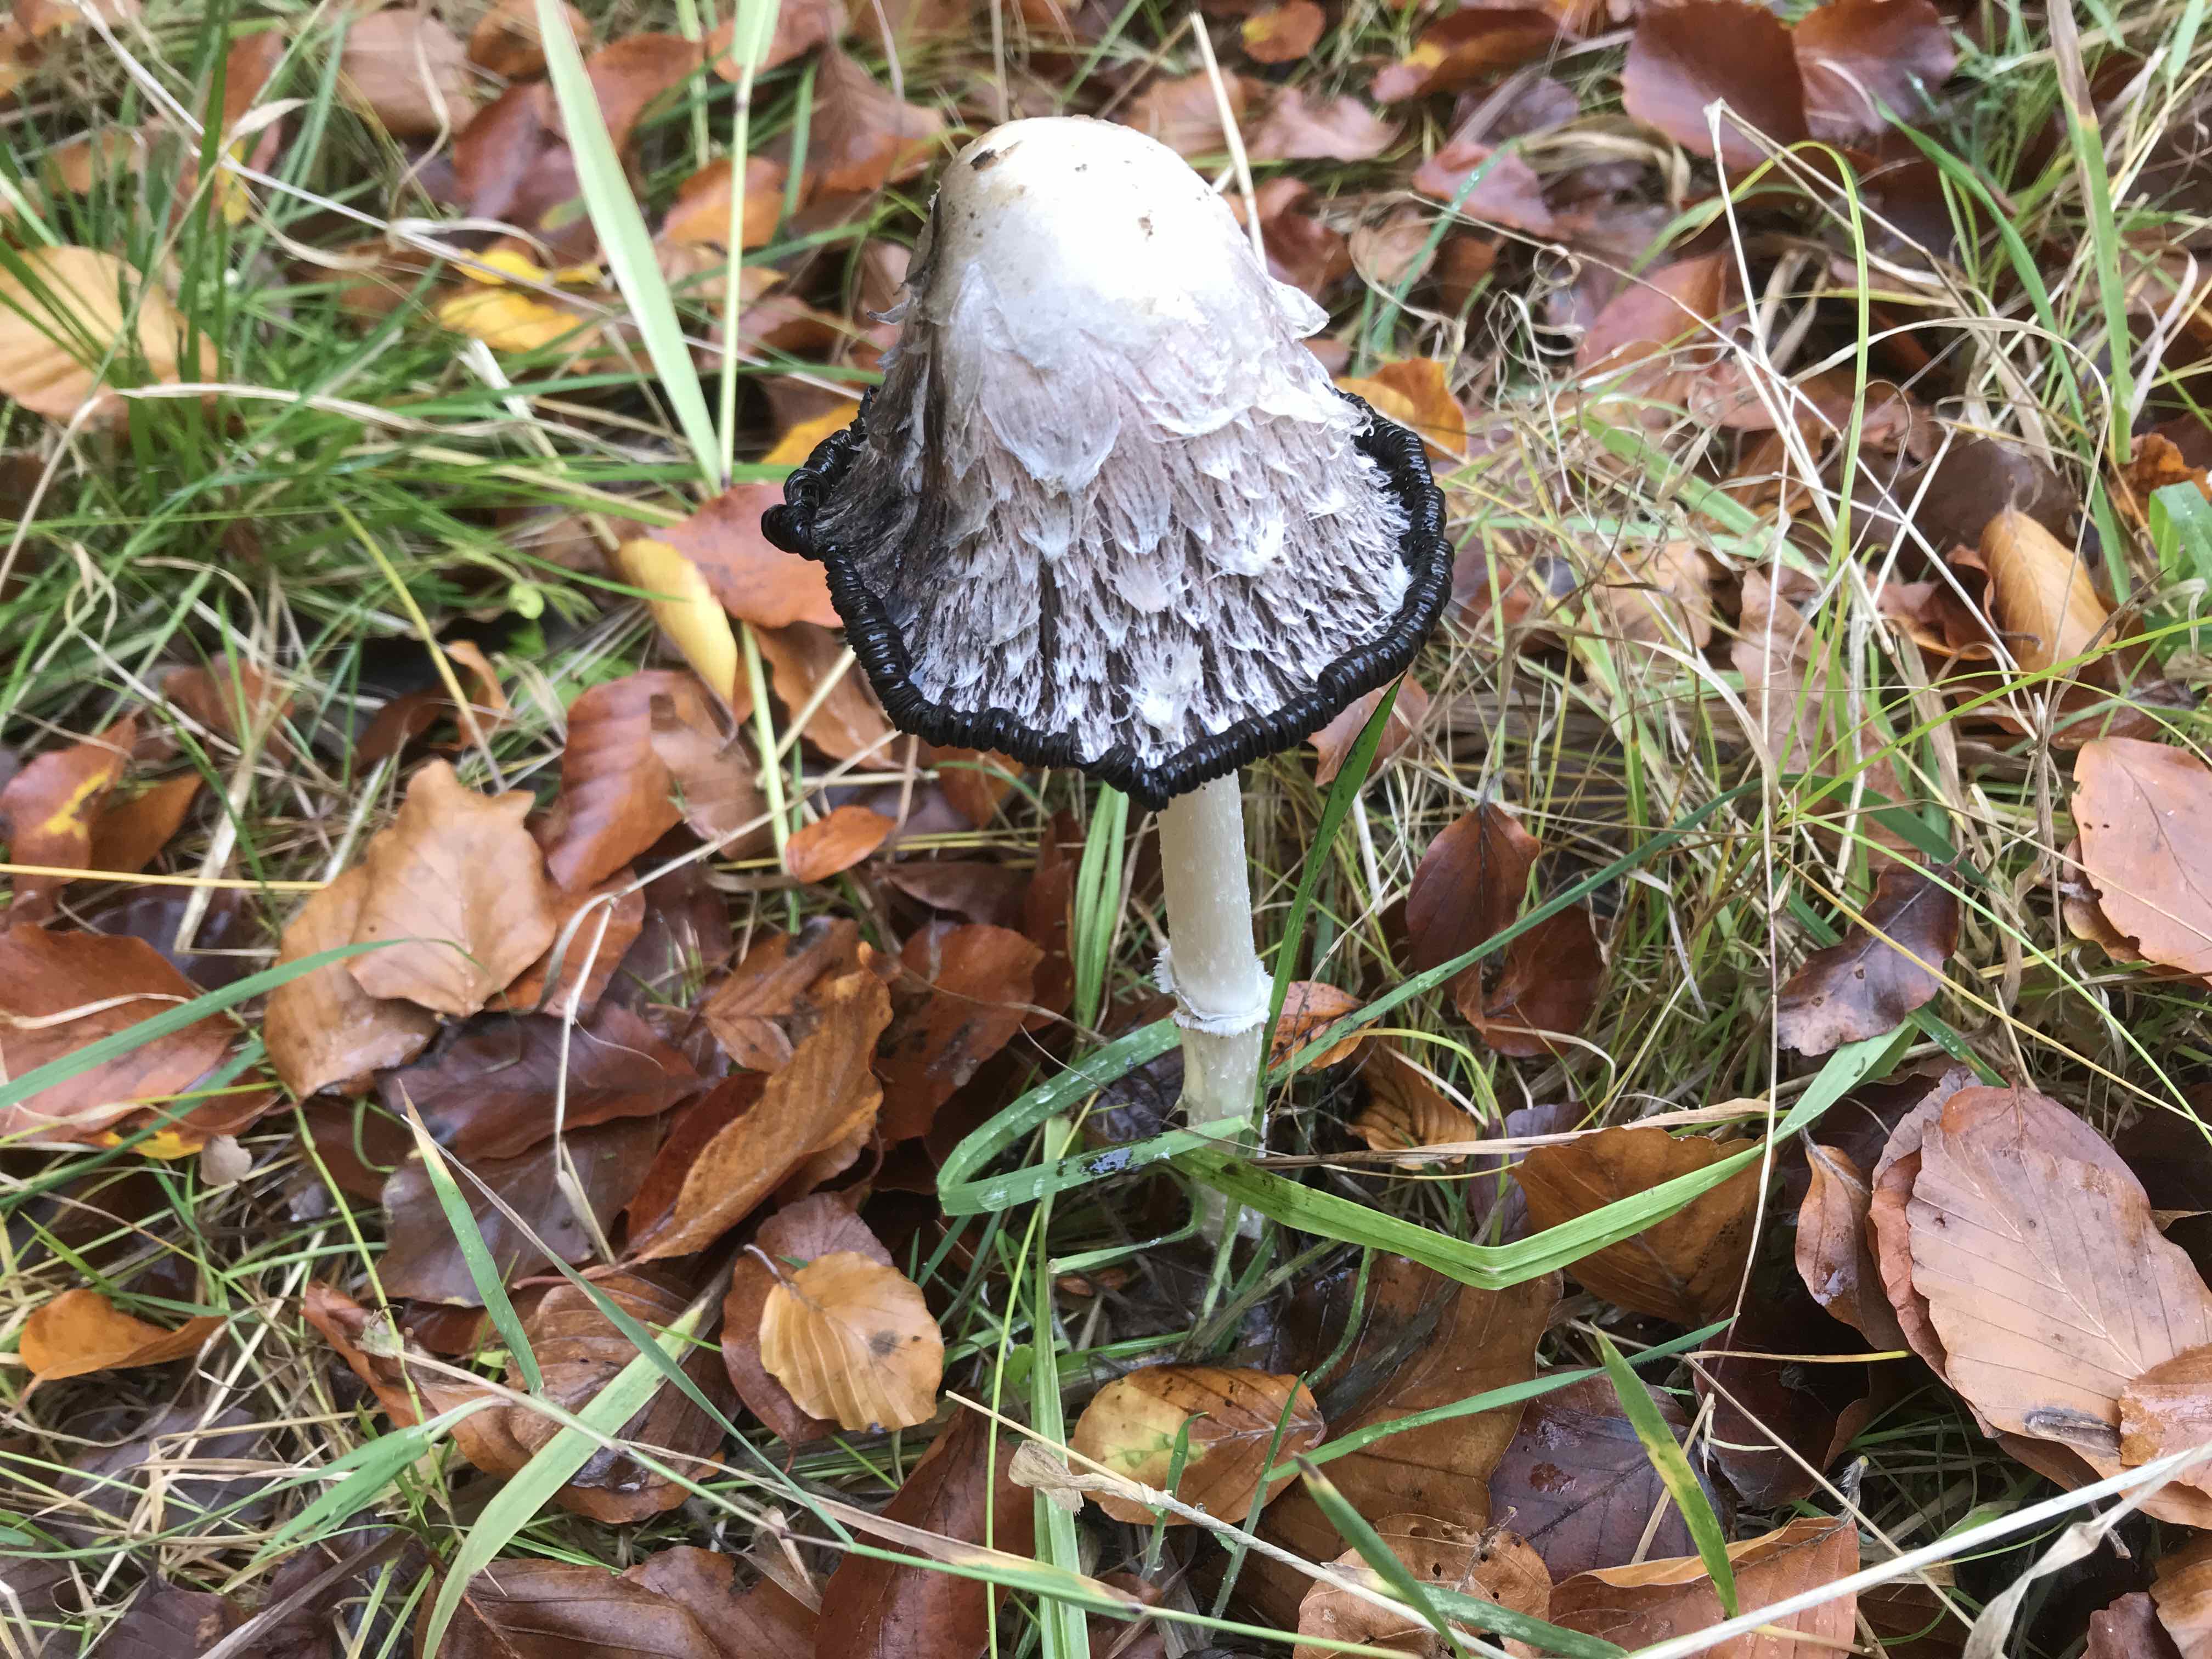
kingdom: Fungi
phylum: Basidiomycota
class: Agaricomycetes
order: Agaricales
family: Agaricaceae
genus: Coprinus
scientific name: Coprinus comatus
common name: stor parykhat
